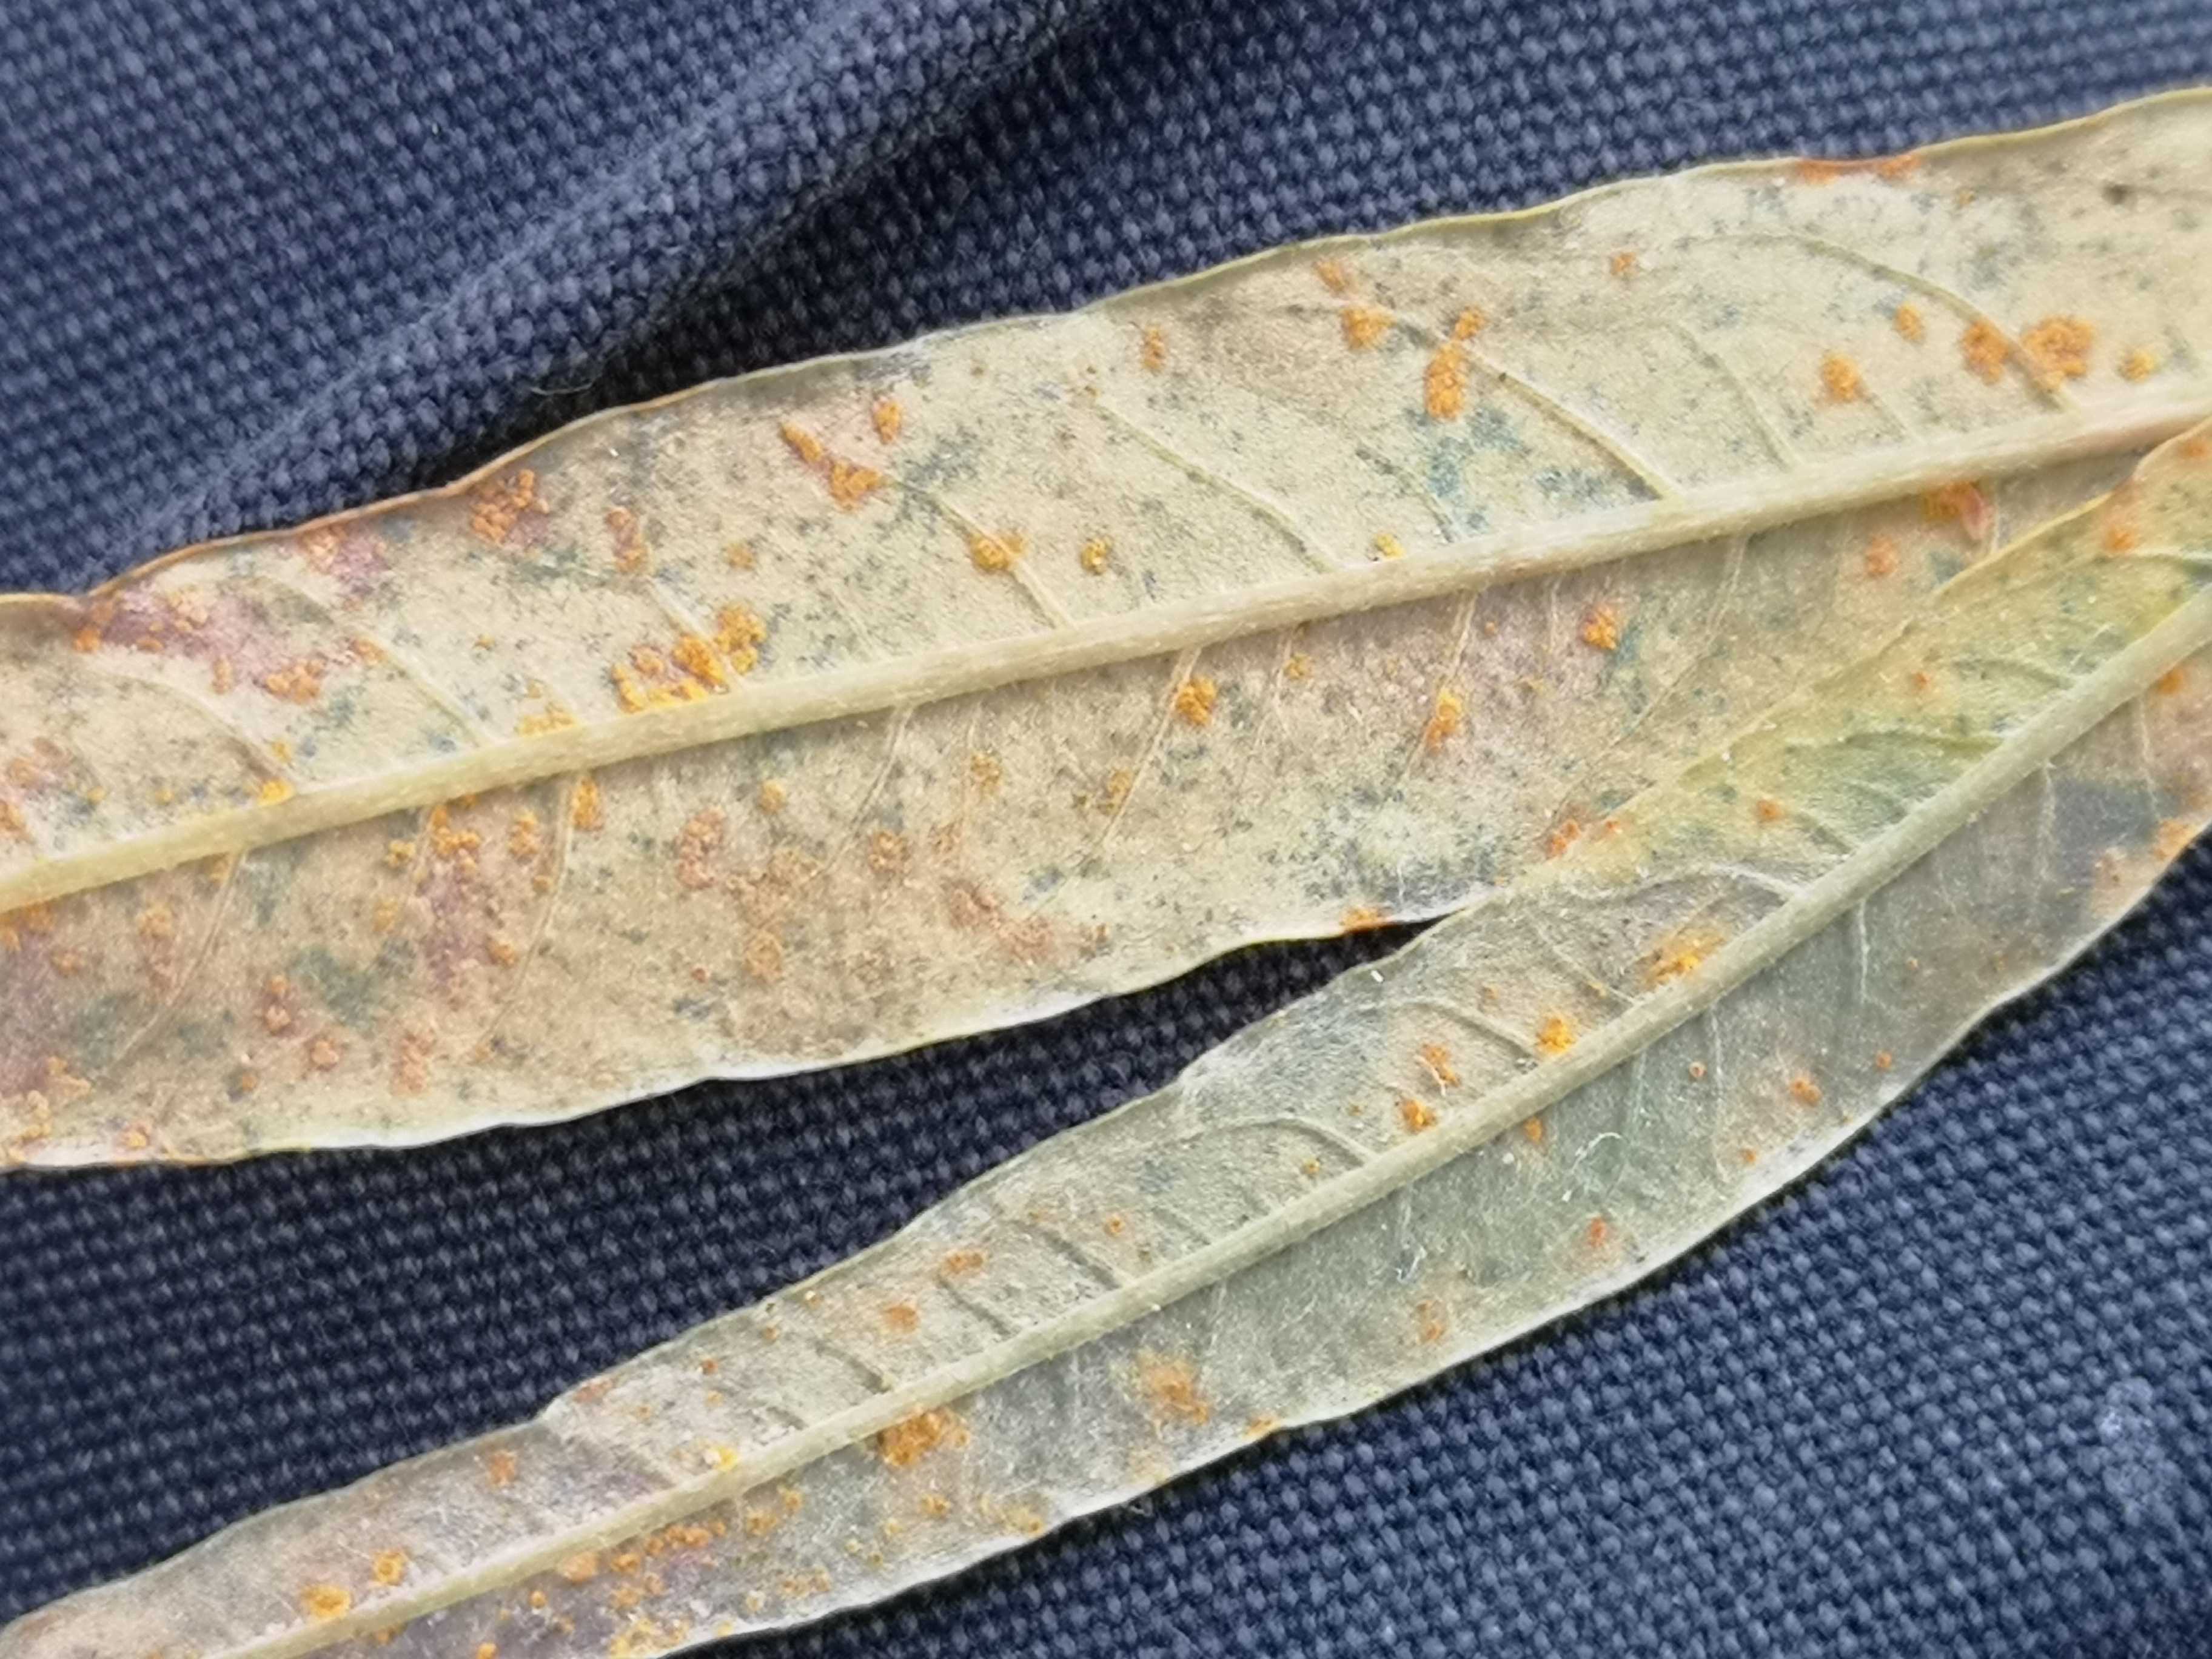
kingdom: Fungi
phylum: Basidiomycota
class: Pucciniomycetes
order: Pucciniales
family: Melampsoraceae
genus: Melampsora
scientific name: Melampsora epitea
